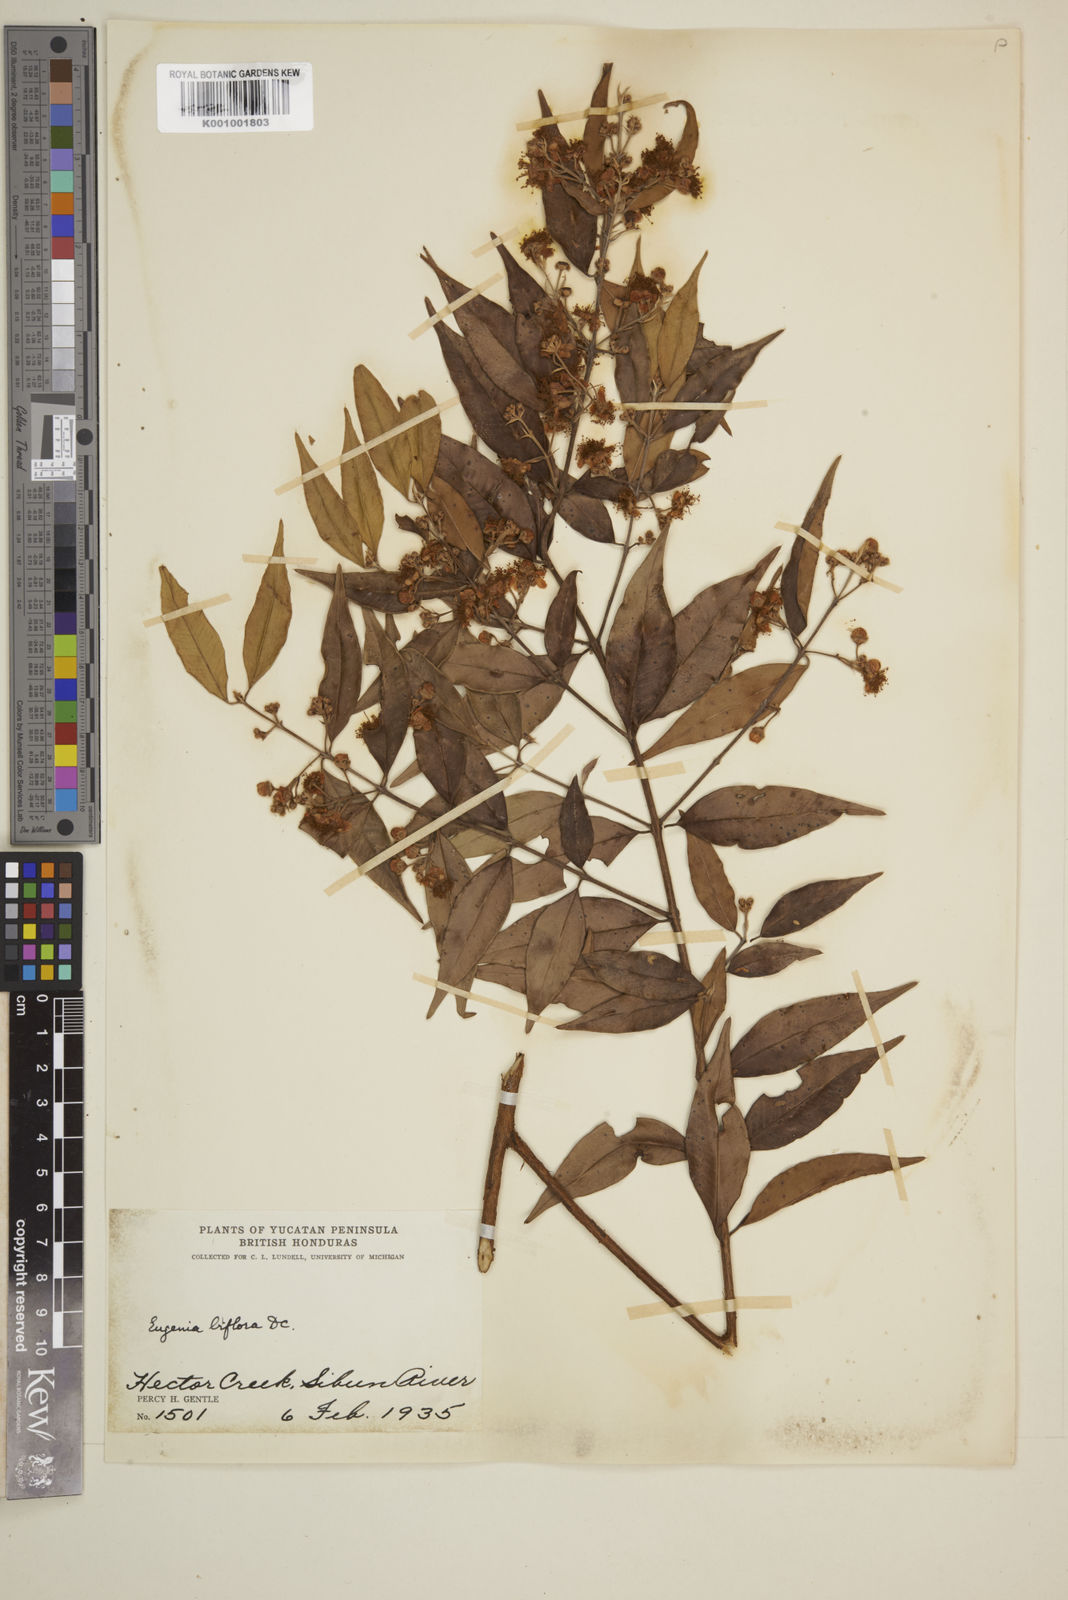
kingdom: Plantae
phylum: Tracheophyta
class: Magnoliopsida
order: Myrtales
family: Myrtaceae
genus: Eugenia
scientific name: Eugenia biflora
